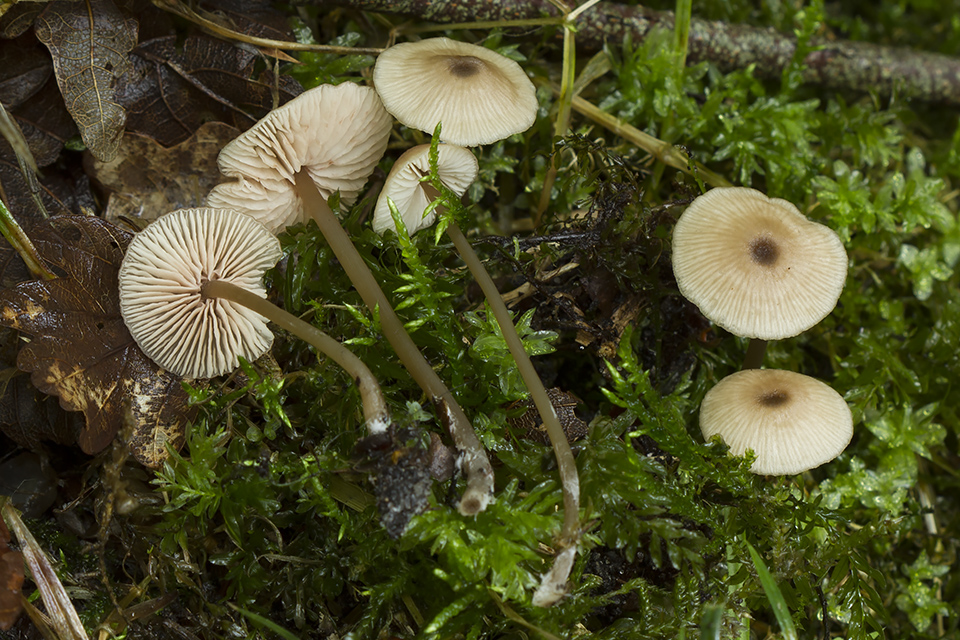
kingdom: Fungi
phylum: Basidiomycota
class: Agaricomycetes
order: Agaricales
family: Entolomataceae
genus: Entoloma
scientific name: Entoloma incognitum
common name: sommer-rødblad
